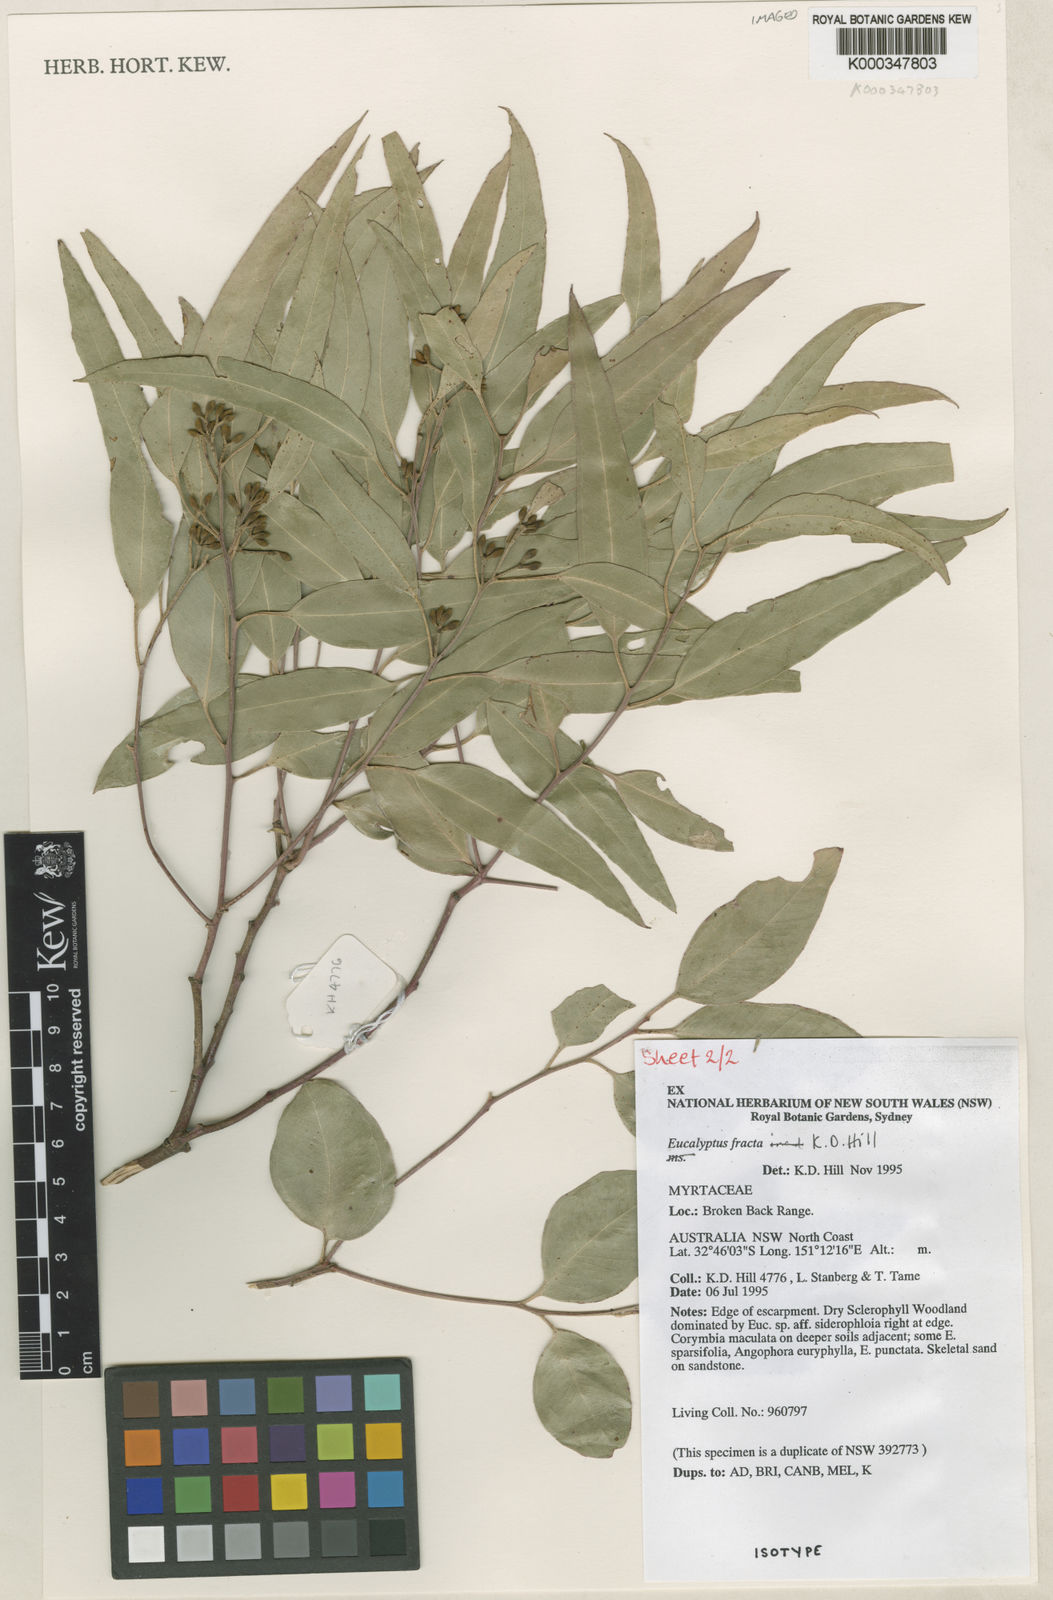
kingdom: Plantae
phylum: Tracheophyta
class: Magnoliopsida
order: Myrtales
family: Myrtaceae
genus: Eucalyptus
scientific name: Eucalyptus fracta
